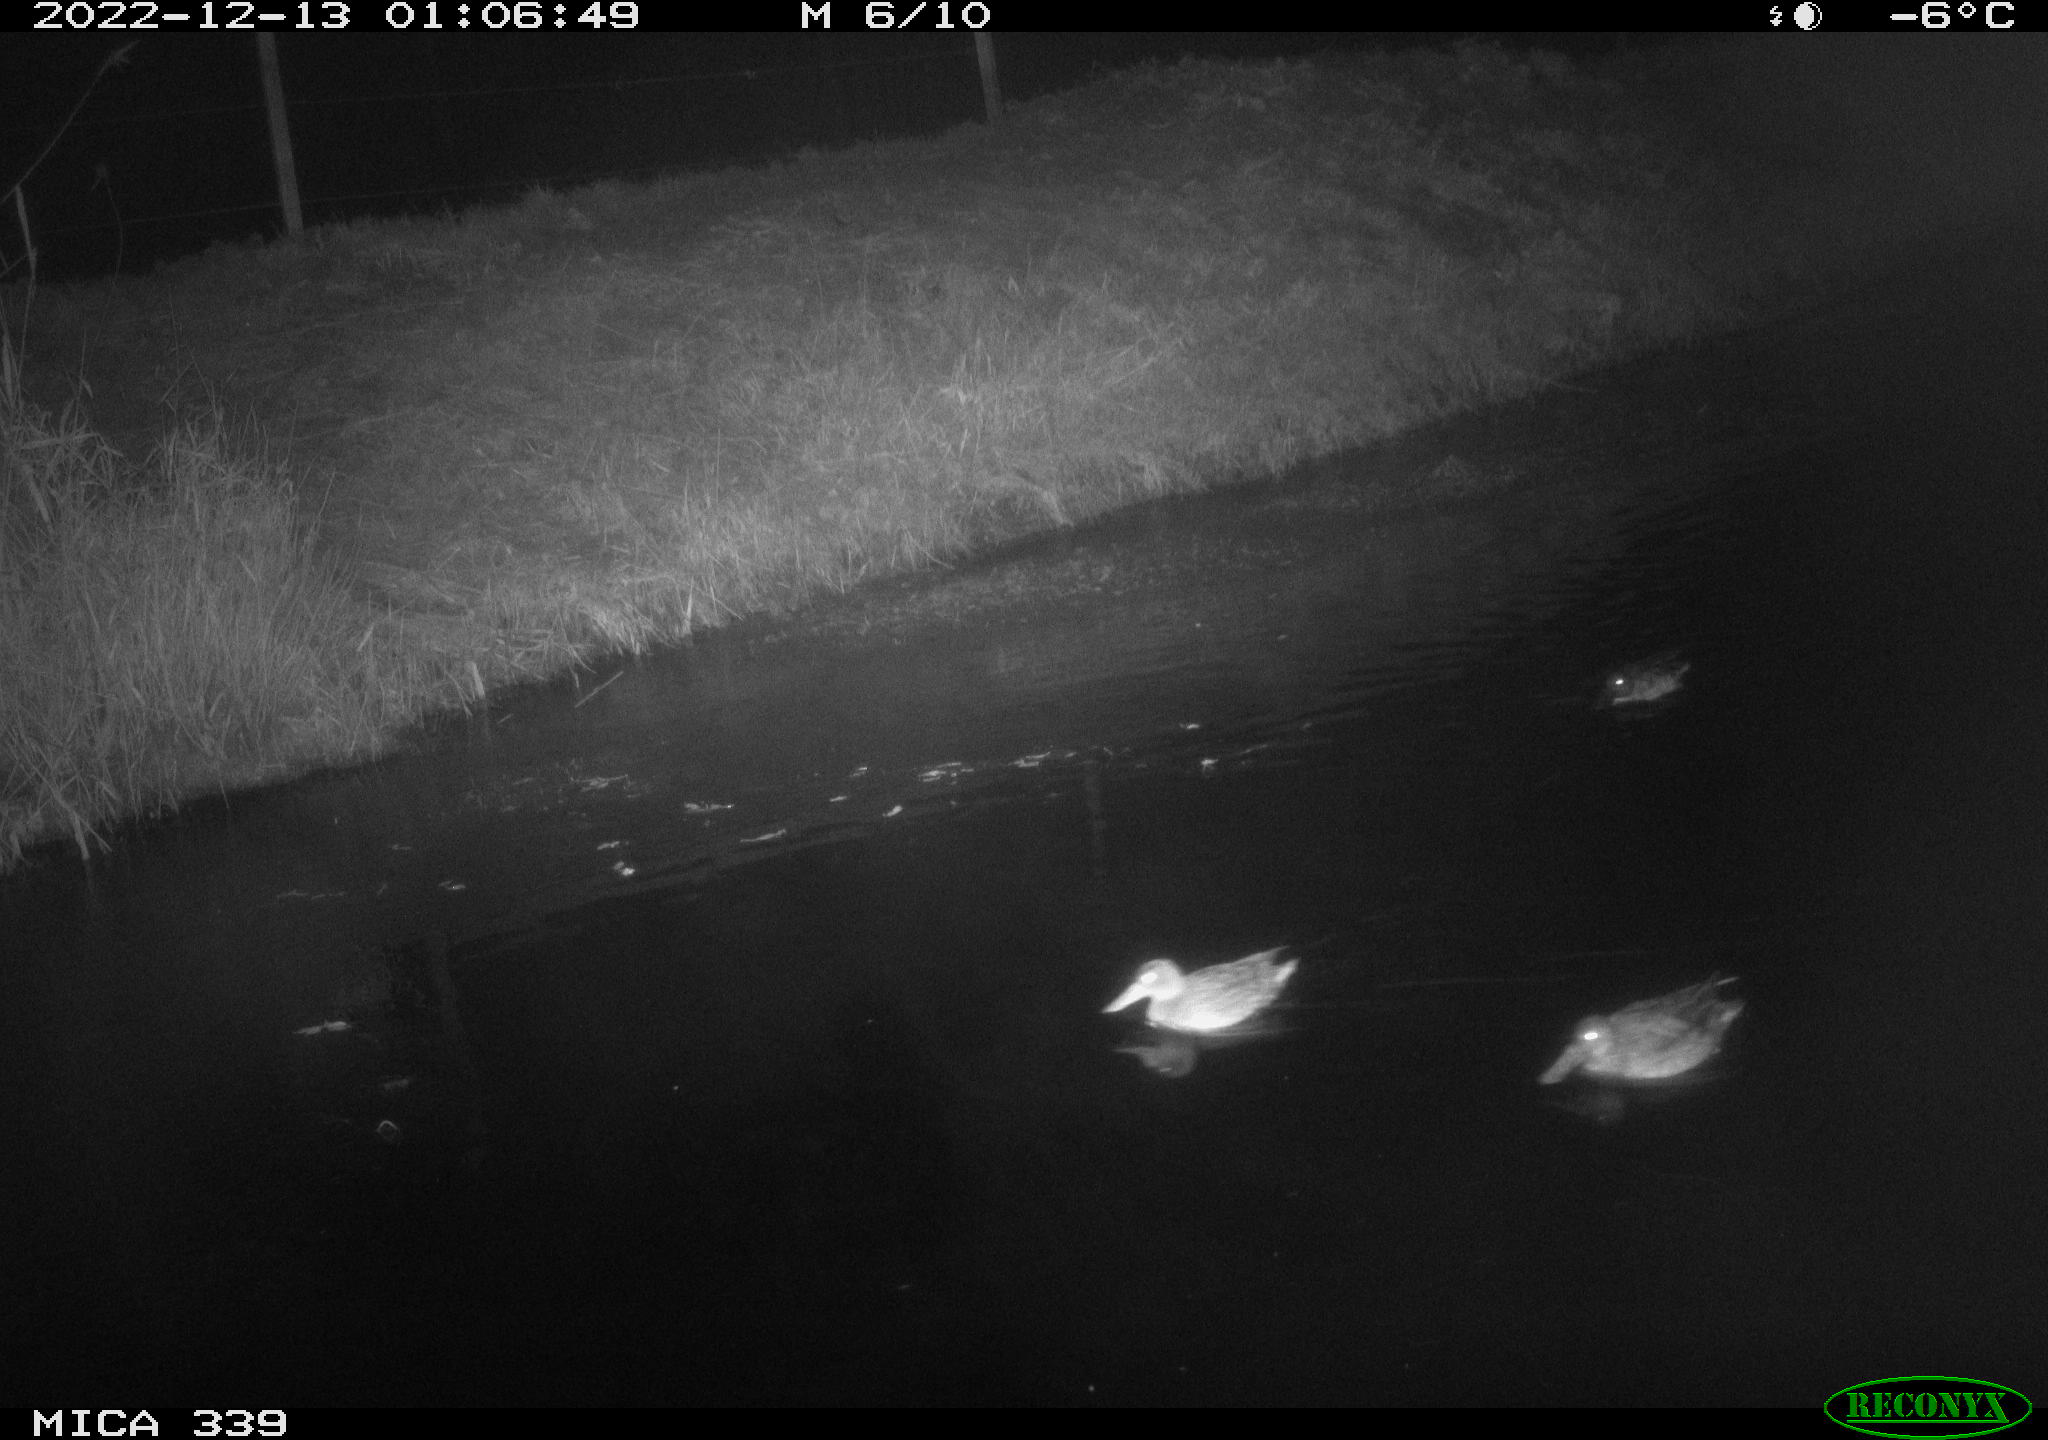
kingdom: Animalia
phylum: Chordata
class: Aves
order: Anseriformes
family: Anatidae
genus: Anas
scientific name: Anas
